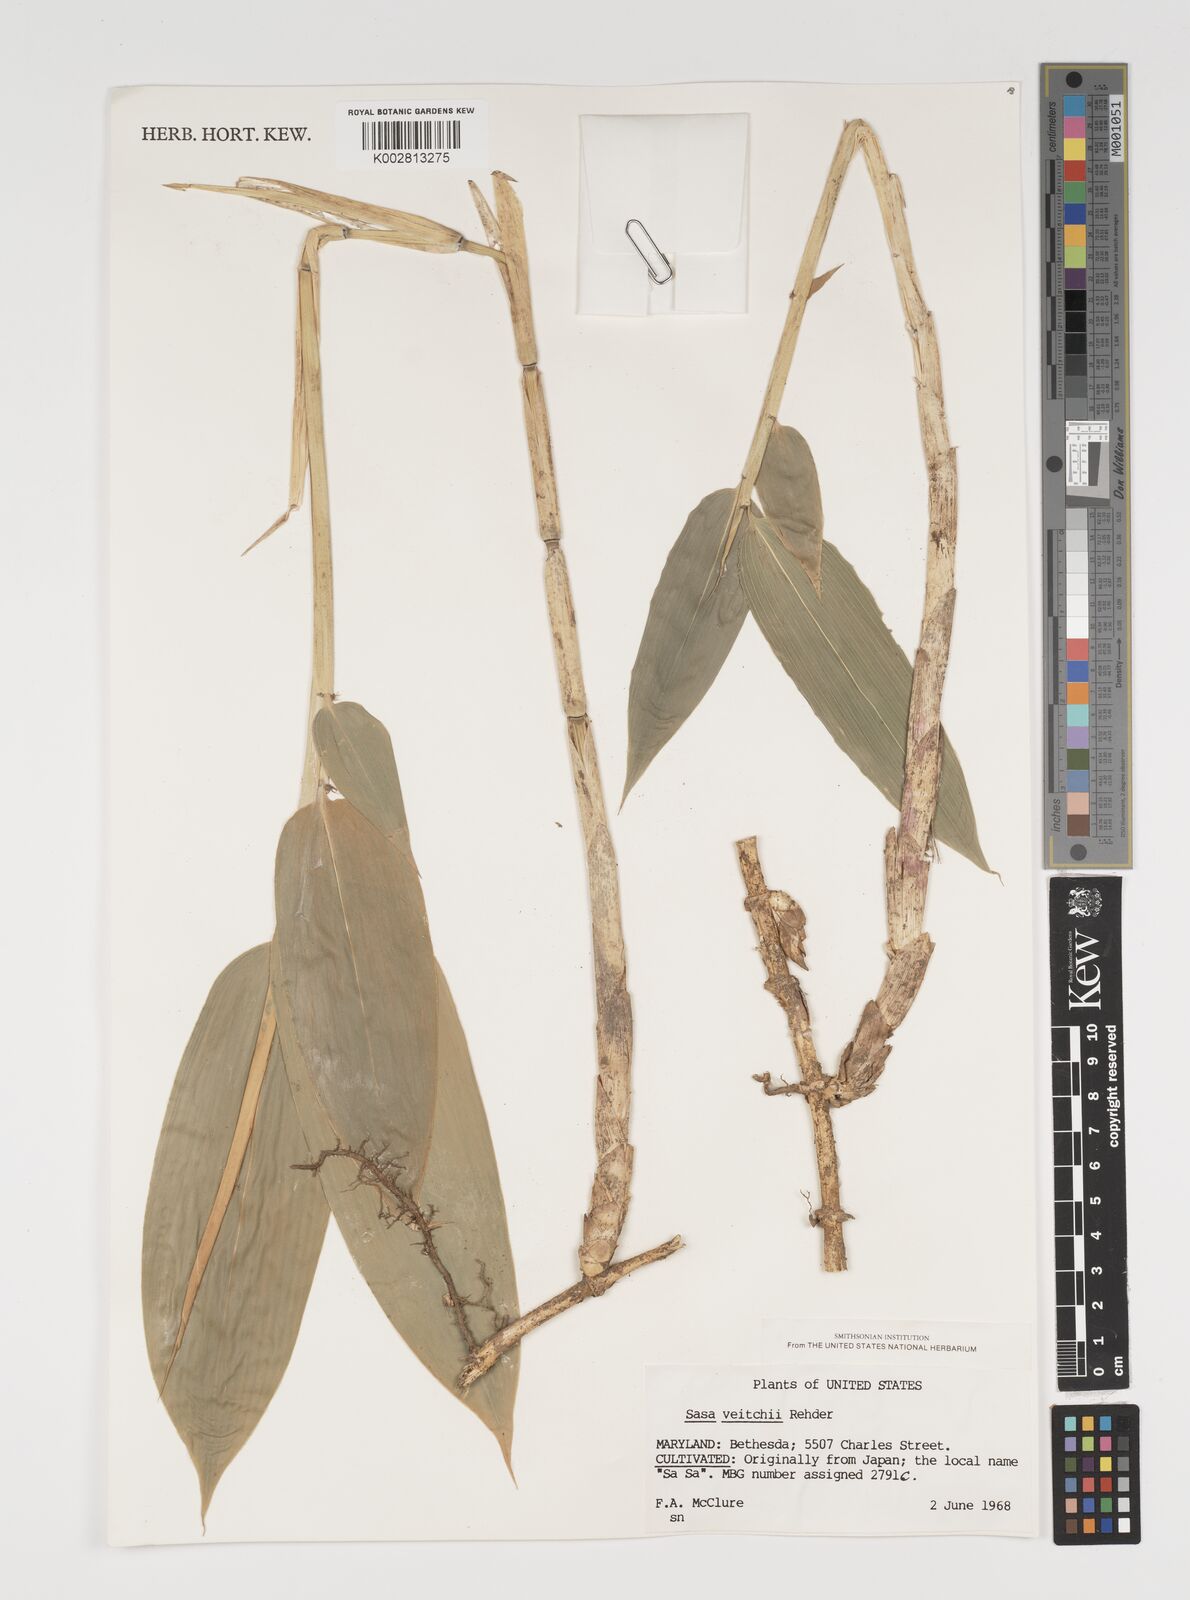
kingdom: Plantae
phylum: Tracheophyta
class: Liliopsida
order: Poales
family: Poaceae
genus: Sasa
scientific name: Sasa veitchii
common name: Veitch's bamboo
